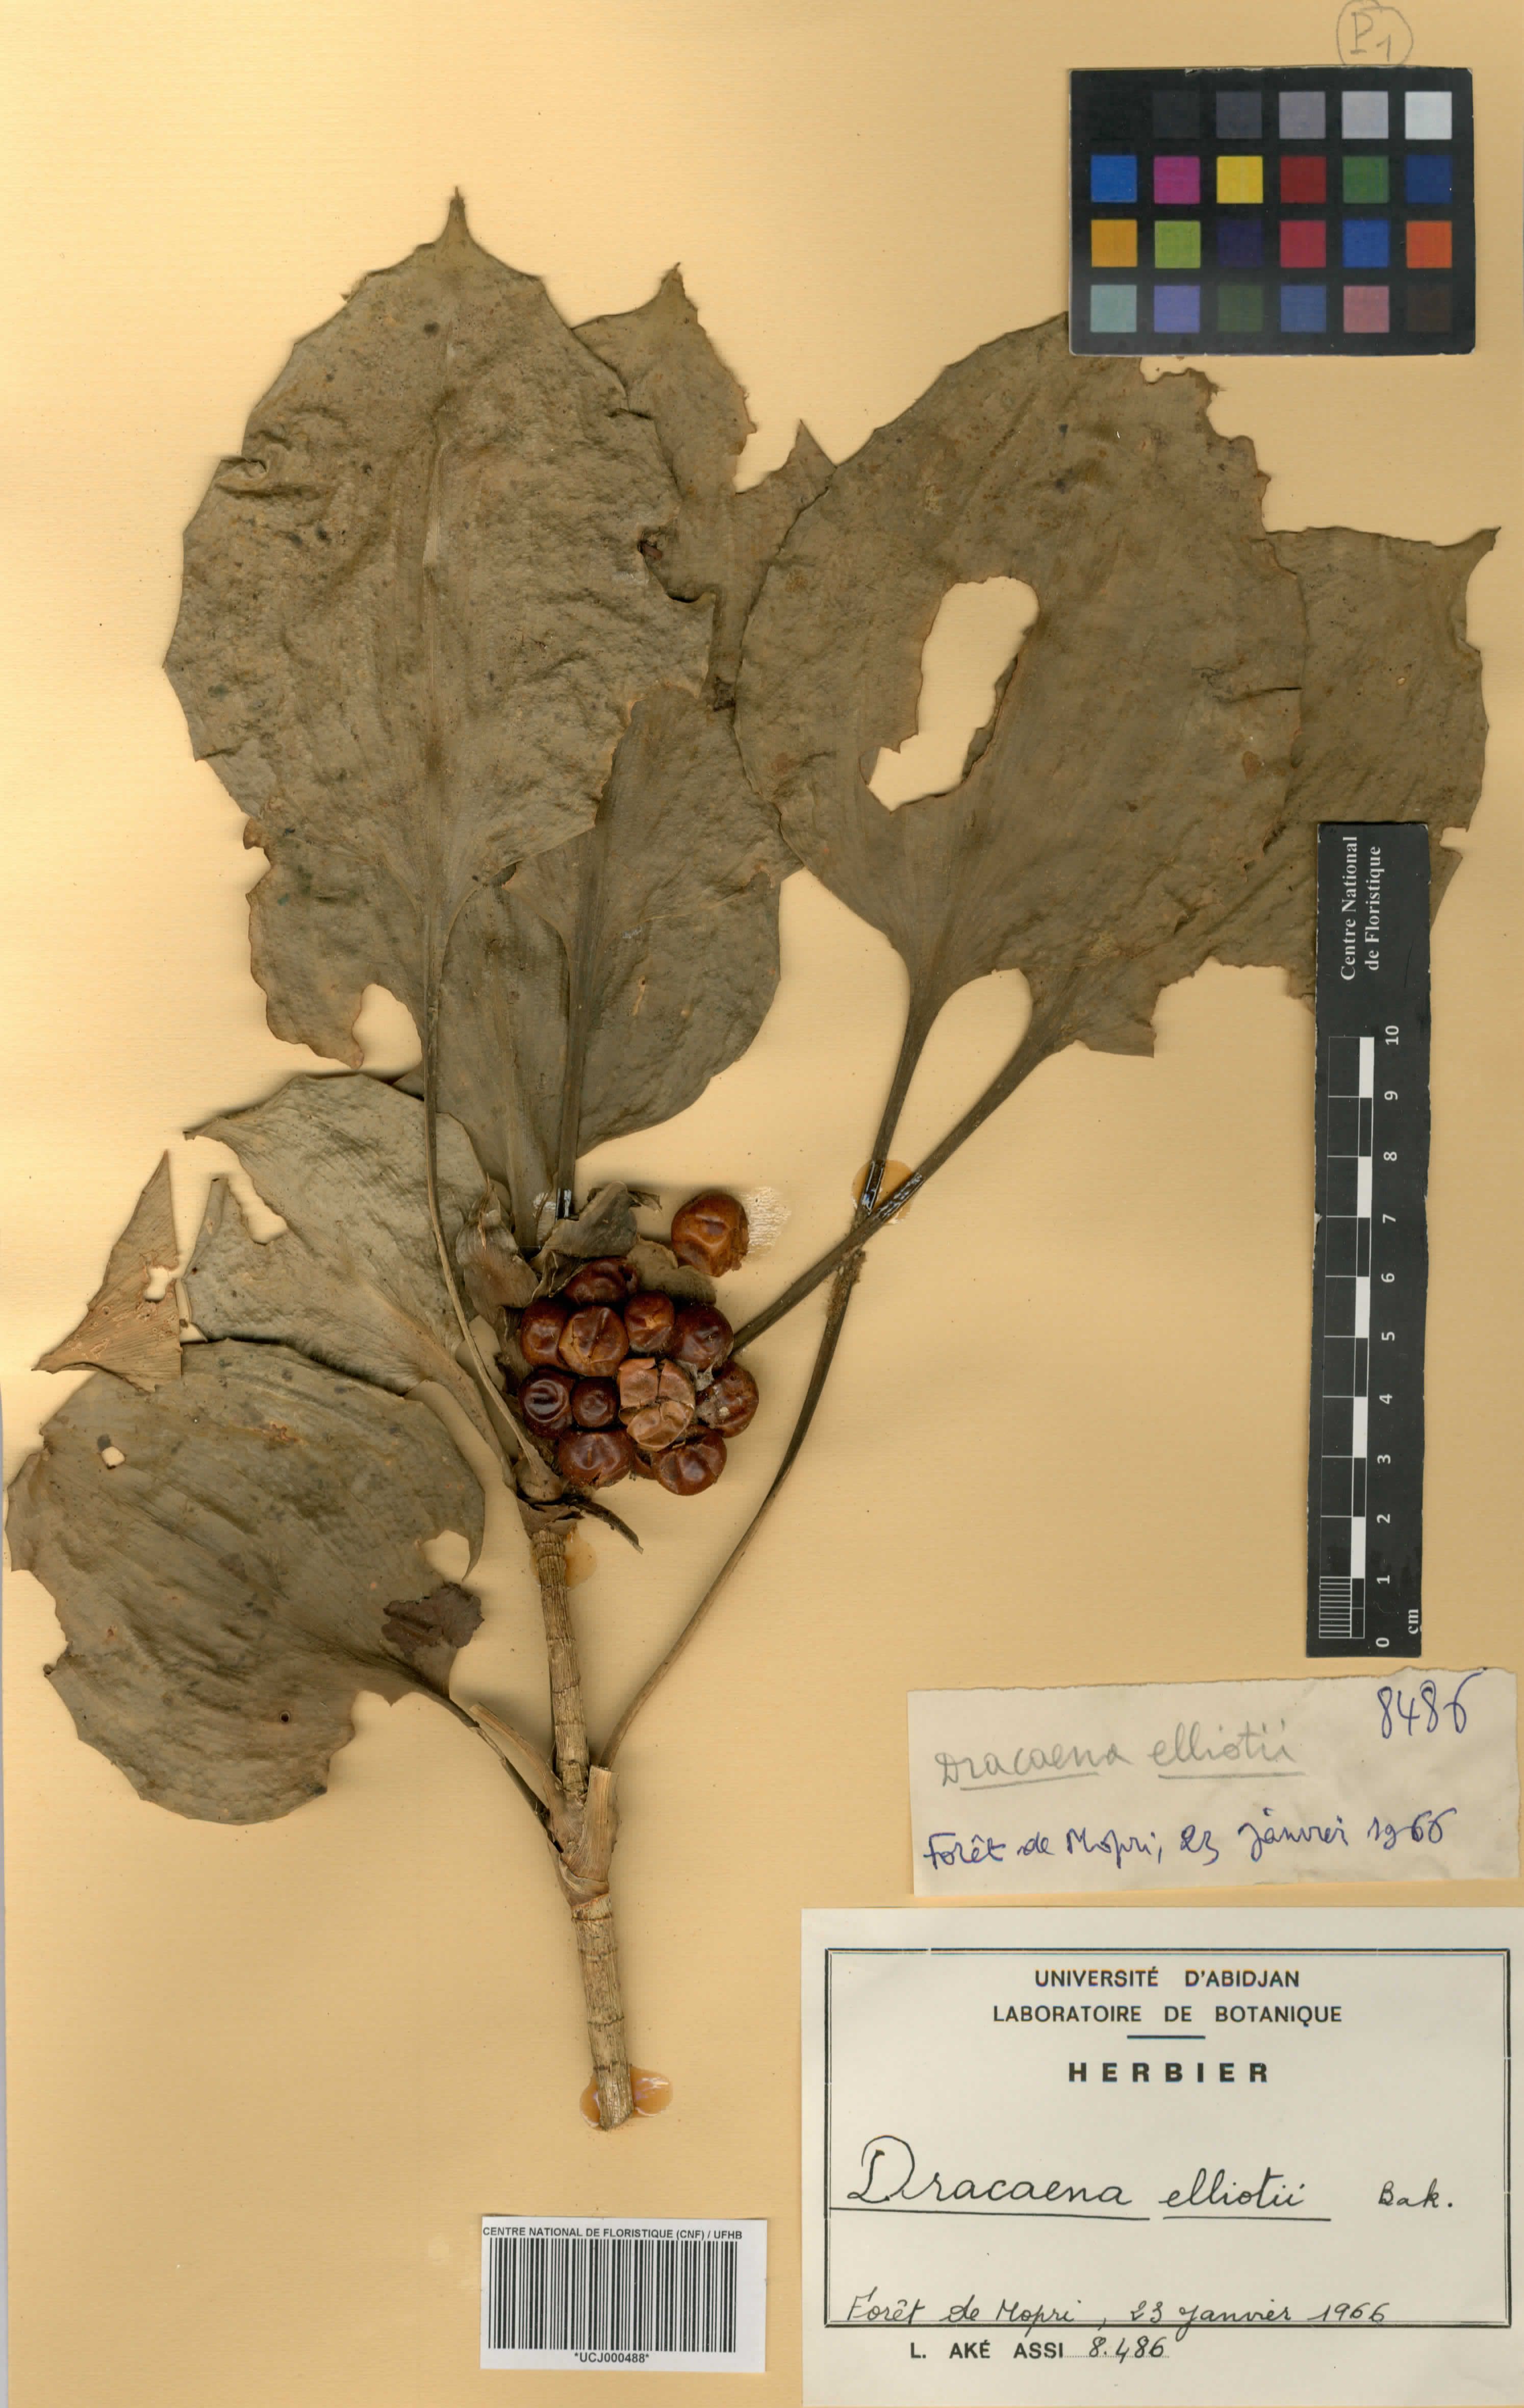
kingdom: Plantae
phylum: Tracheophyta
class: Liliopsida
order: Asparagales
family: Asparagaceae
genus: Dracaena
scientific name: Dracaena cristula
